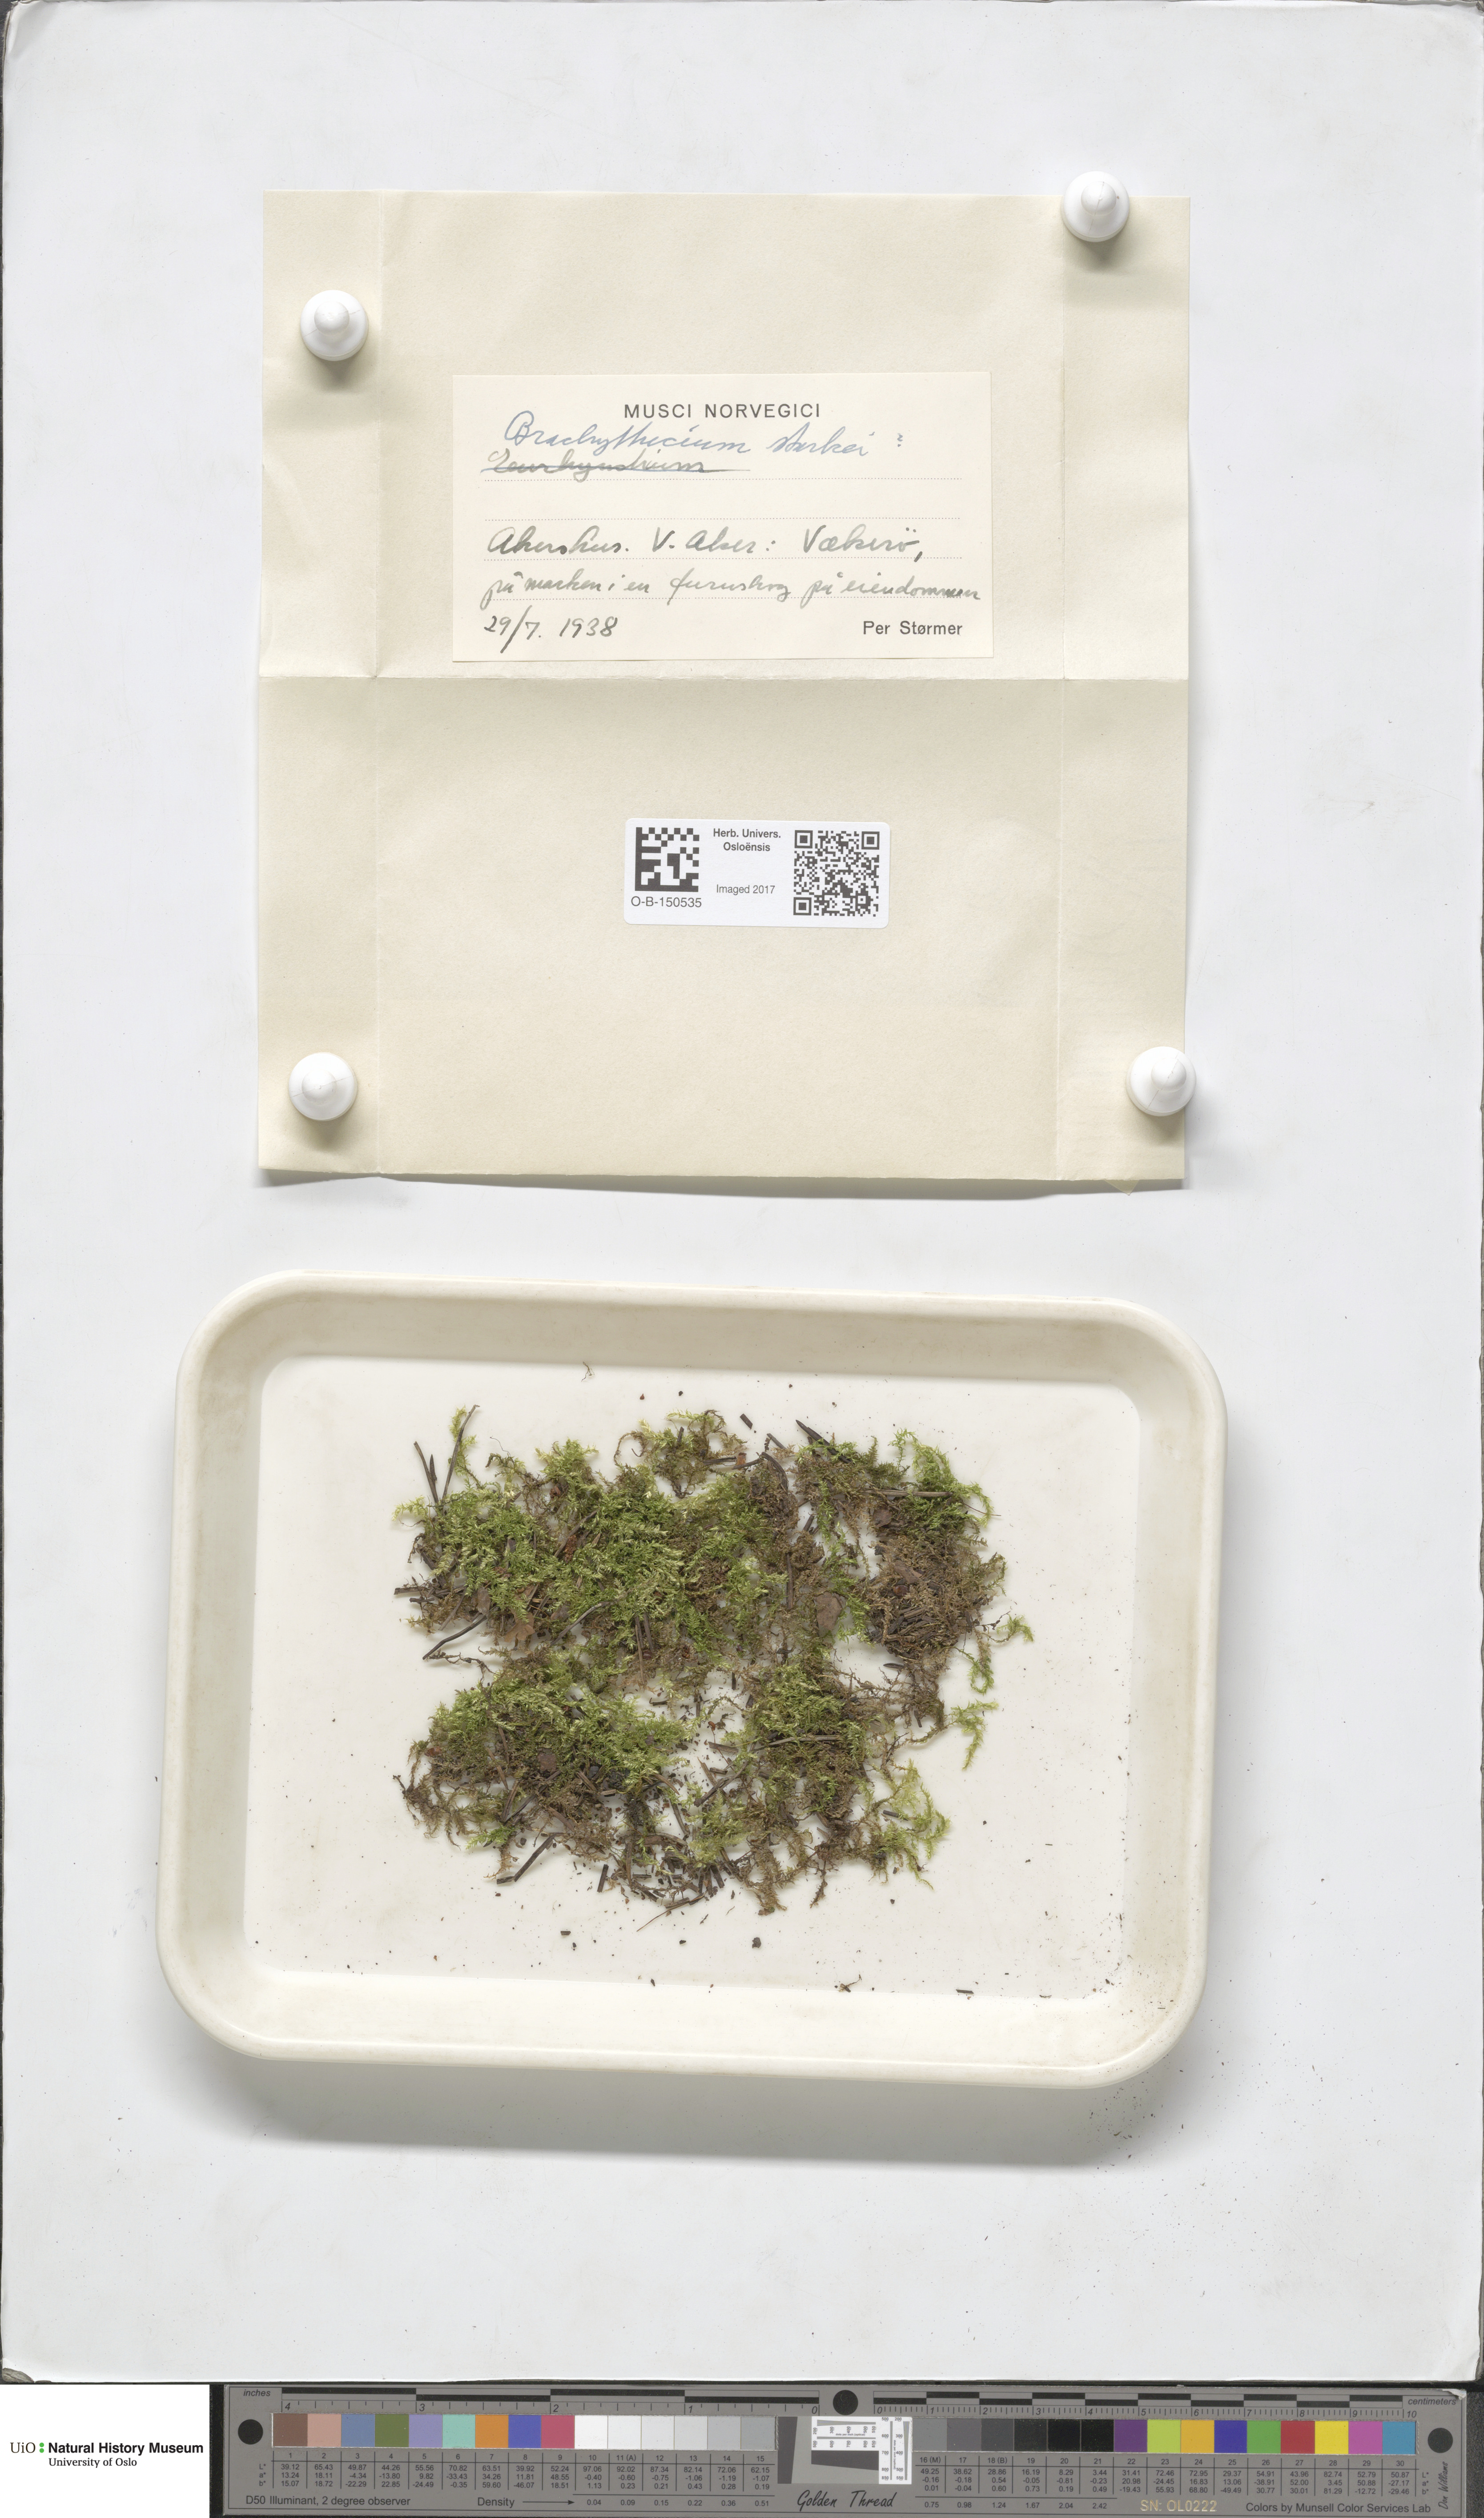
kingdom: Plantae
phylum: Bryophyta
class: Bryopsida
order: Hypnales
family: Brachytheciaceae
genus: Sciuro-hypnum
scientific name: Sciuro-hypnum starkei
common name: Starke's feather-moss
